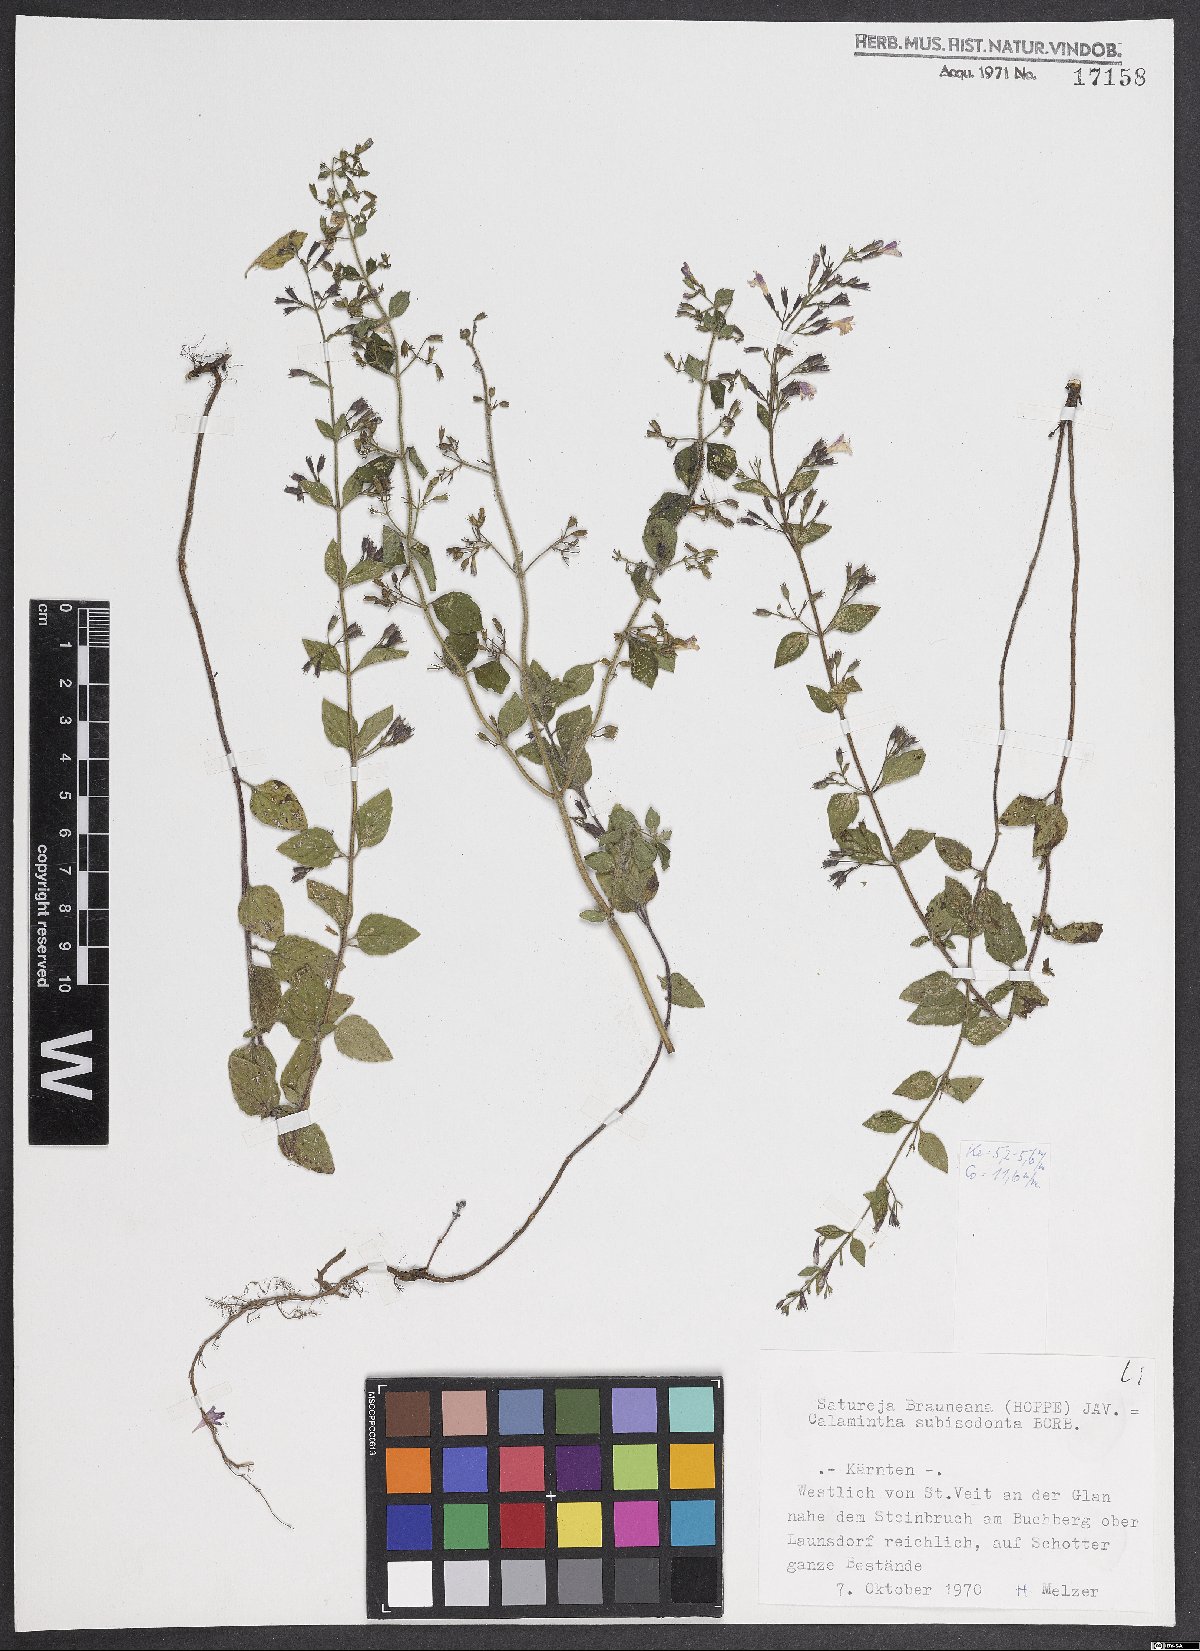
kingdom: Plantae
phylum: Tracheophyta
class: Magnoliopsida
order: Lamiales
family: Lamiaceae
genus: Clinopodium
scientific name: Clinopodium nepeta
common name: Lesser calamint
